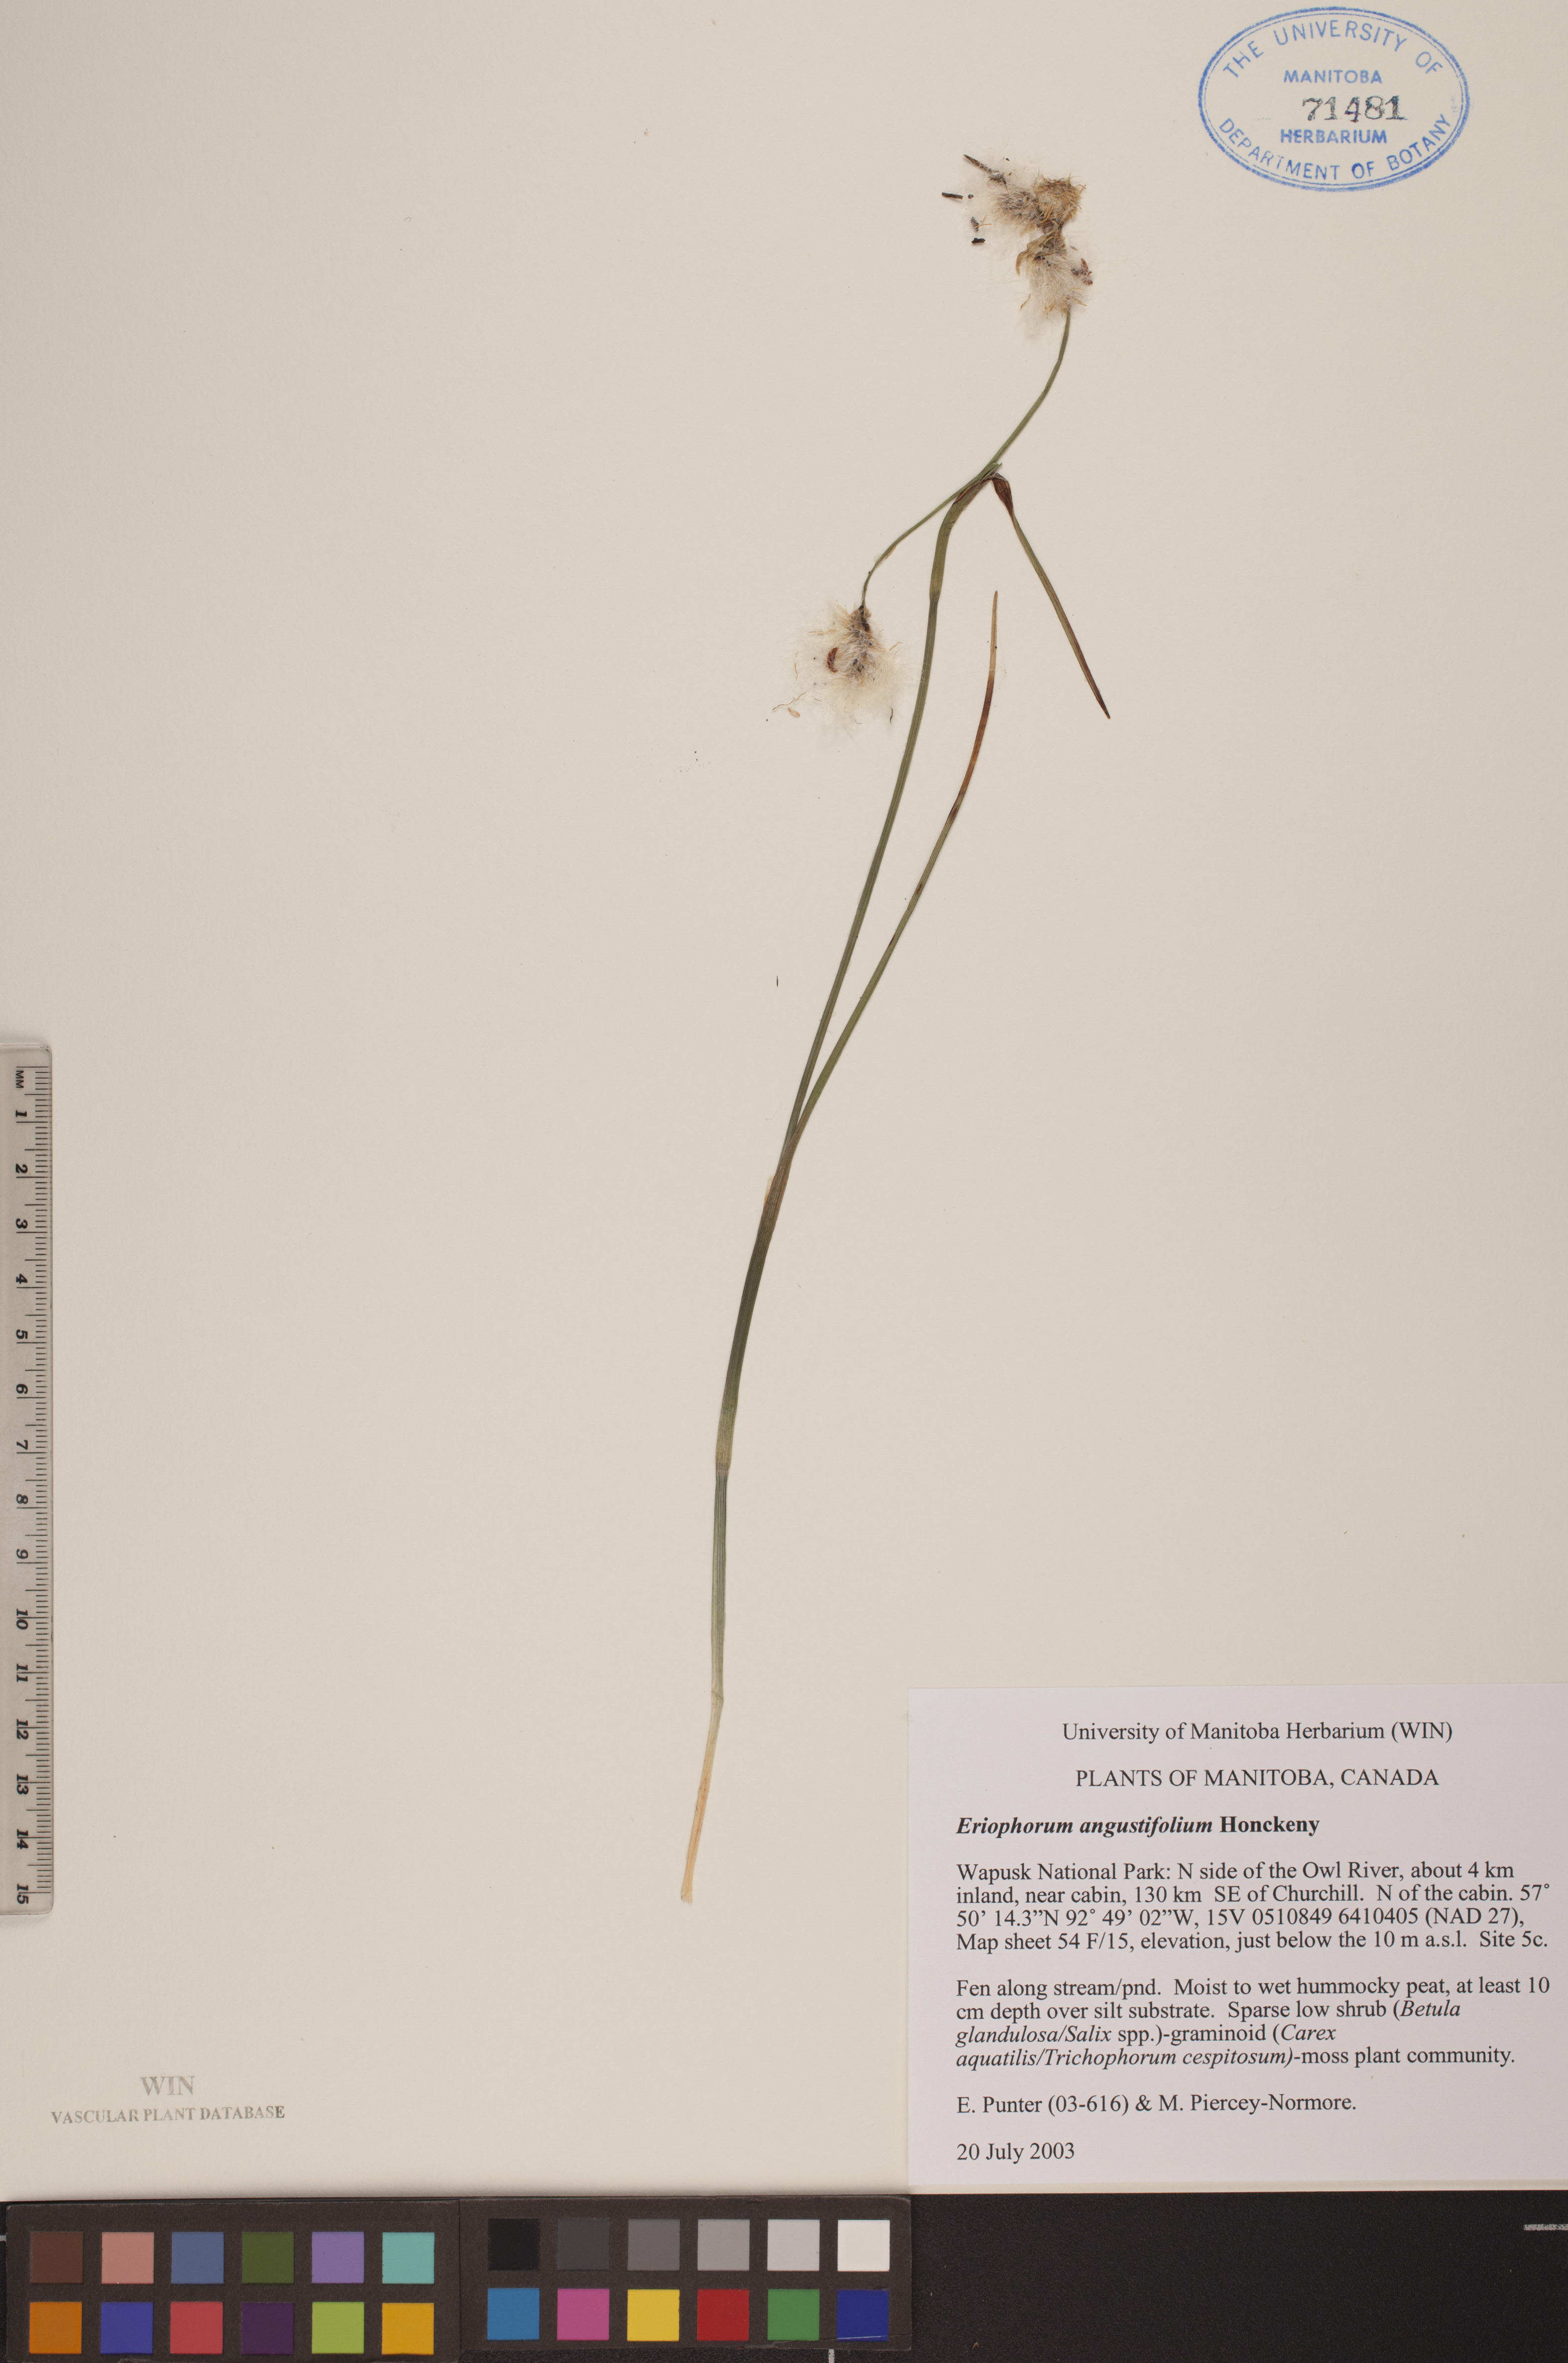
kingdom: Plantae
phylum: Tracheophyta
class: Liliopsida
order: Poales
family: Cyperaceae
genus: Eriophorum
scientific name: Eriophorum angustifolium
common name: Common cottongrass
